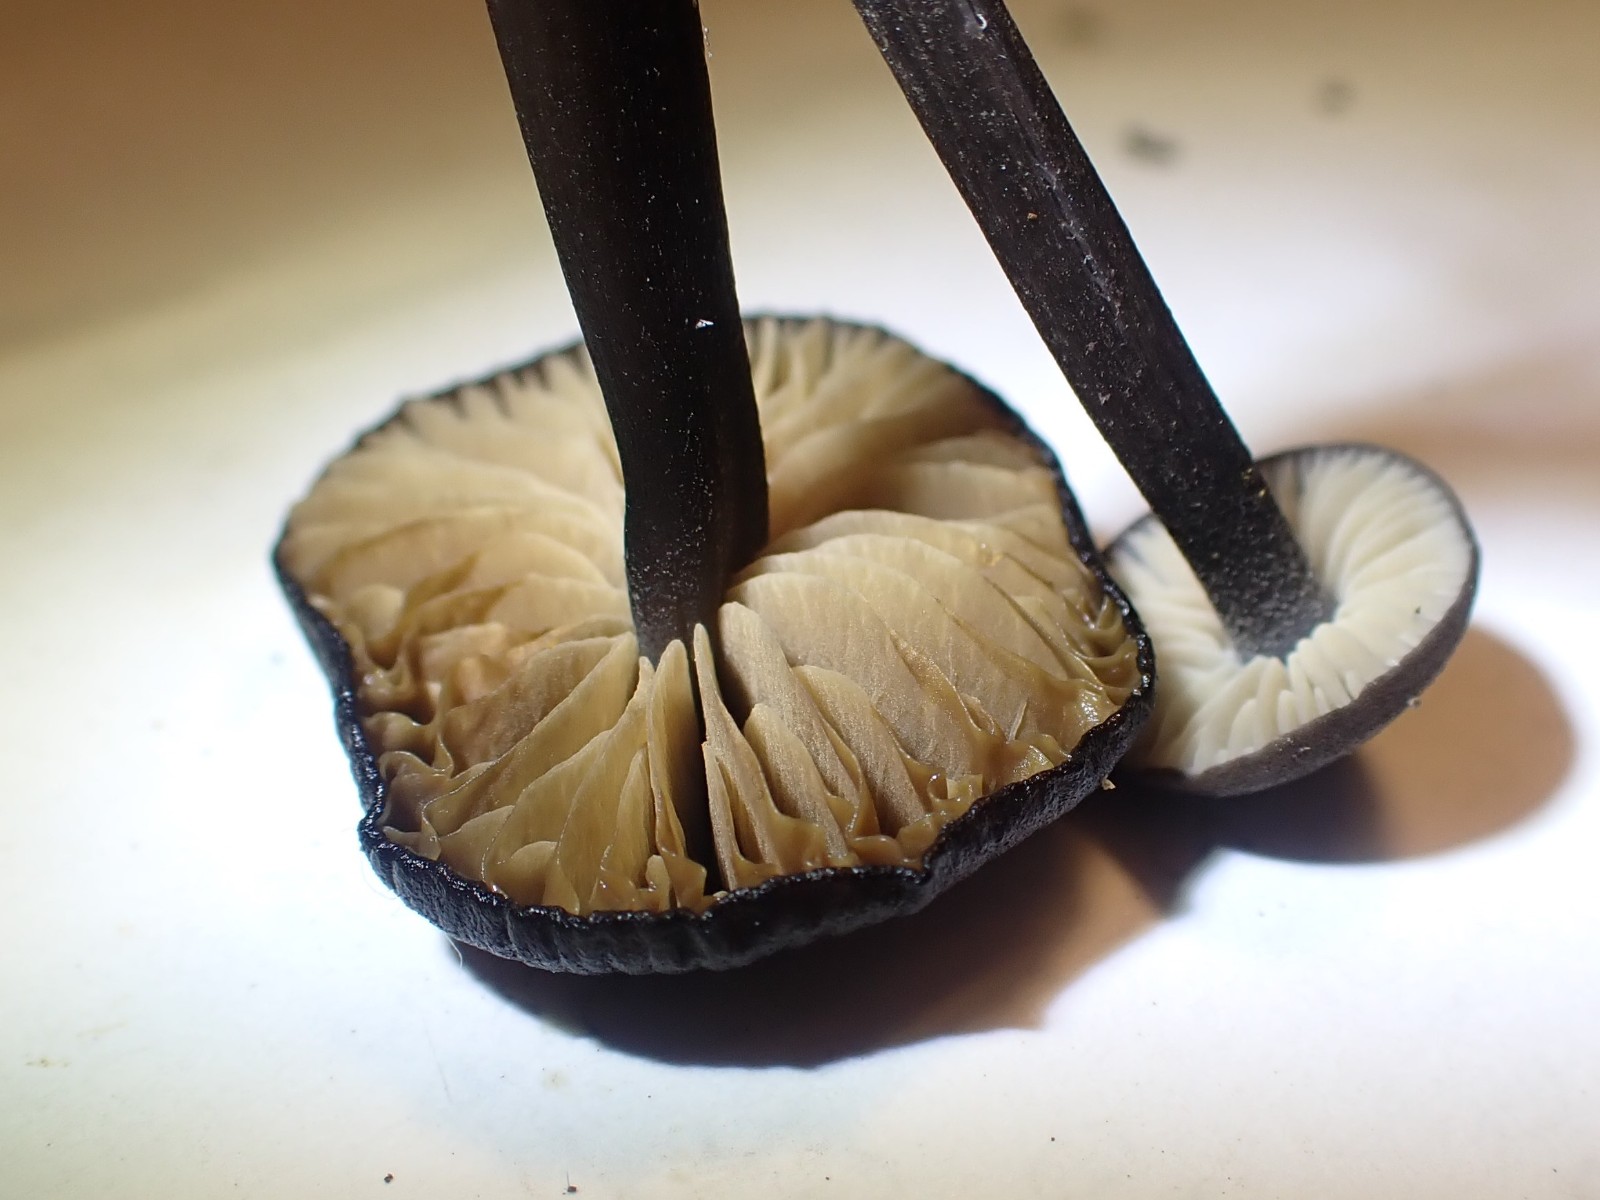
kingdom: Fungi
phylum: Basidiomycota
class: Agaricomycetes
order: Agaricales
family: Entolomataceae
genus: Entoloma
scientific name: Entoloma atrocoeruleum
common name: sortblå rødblad
